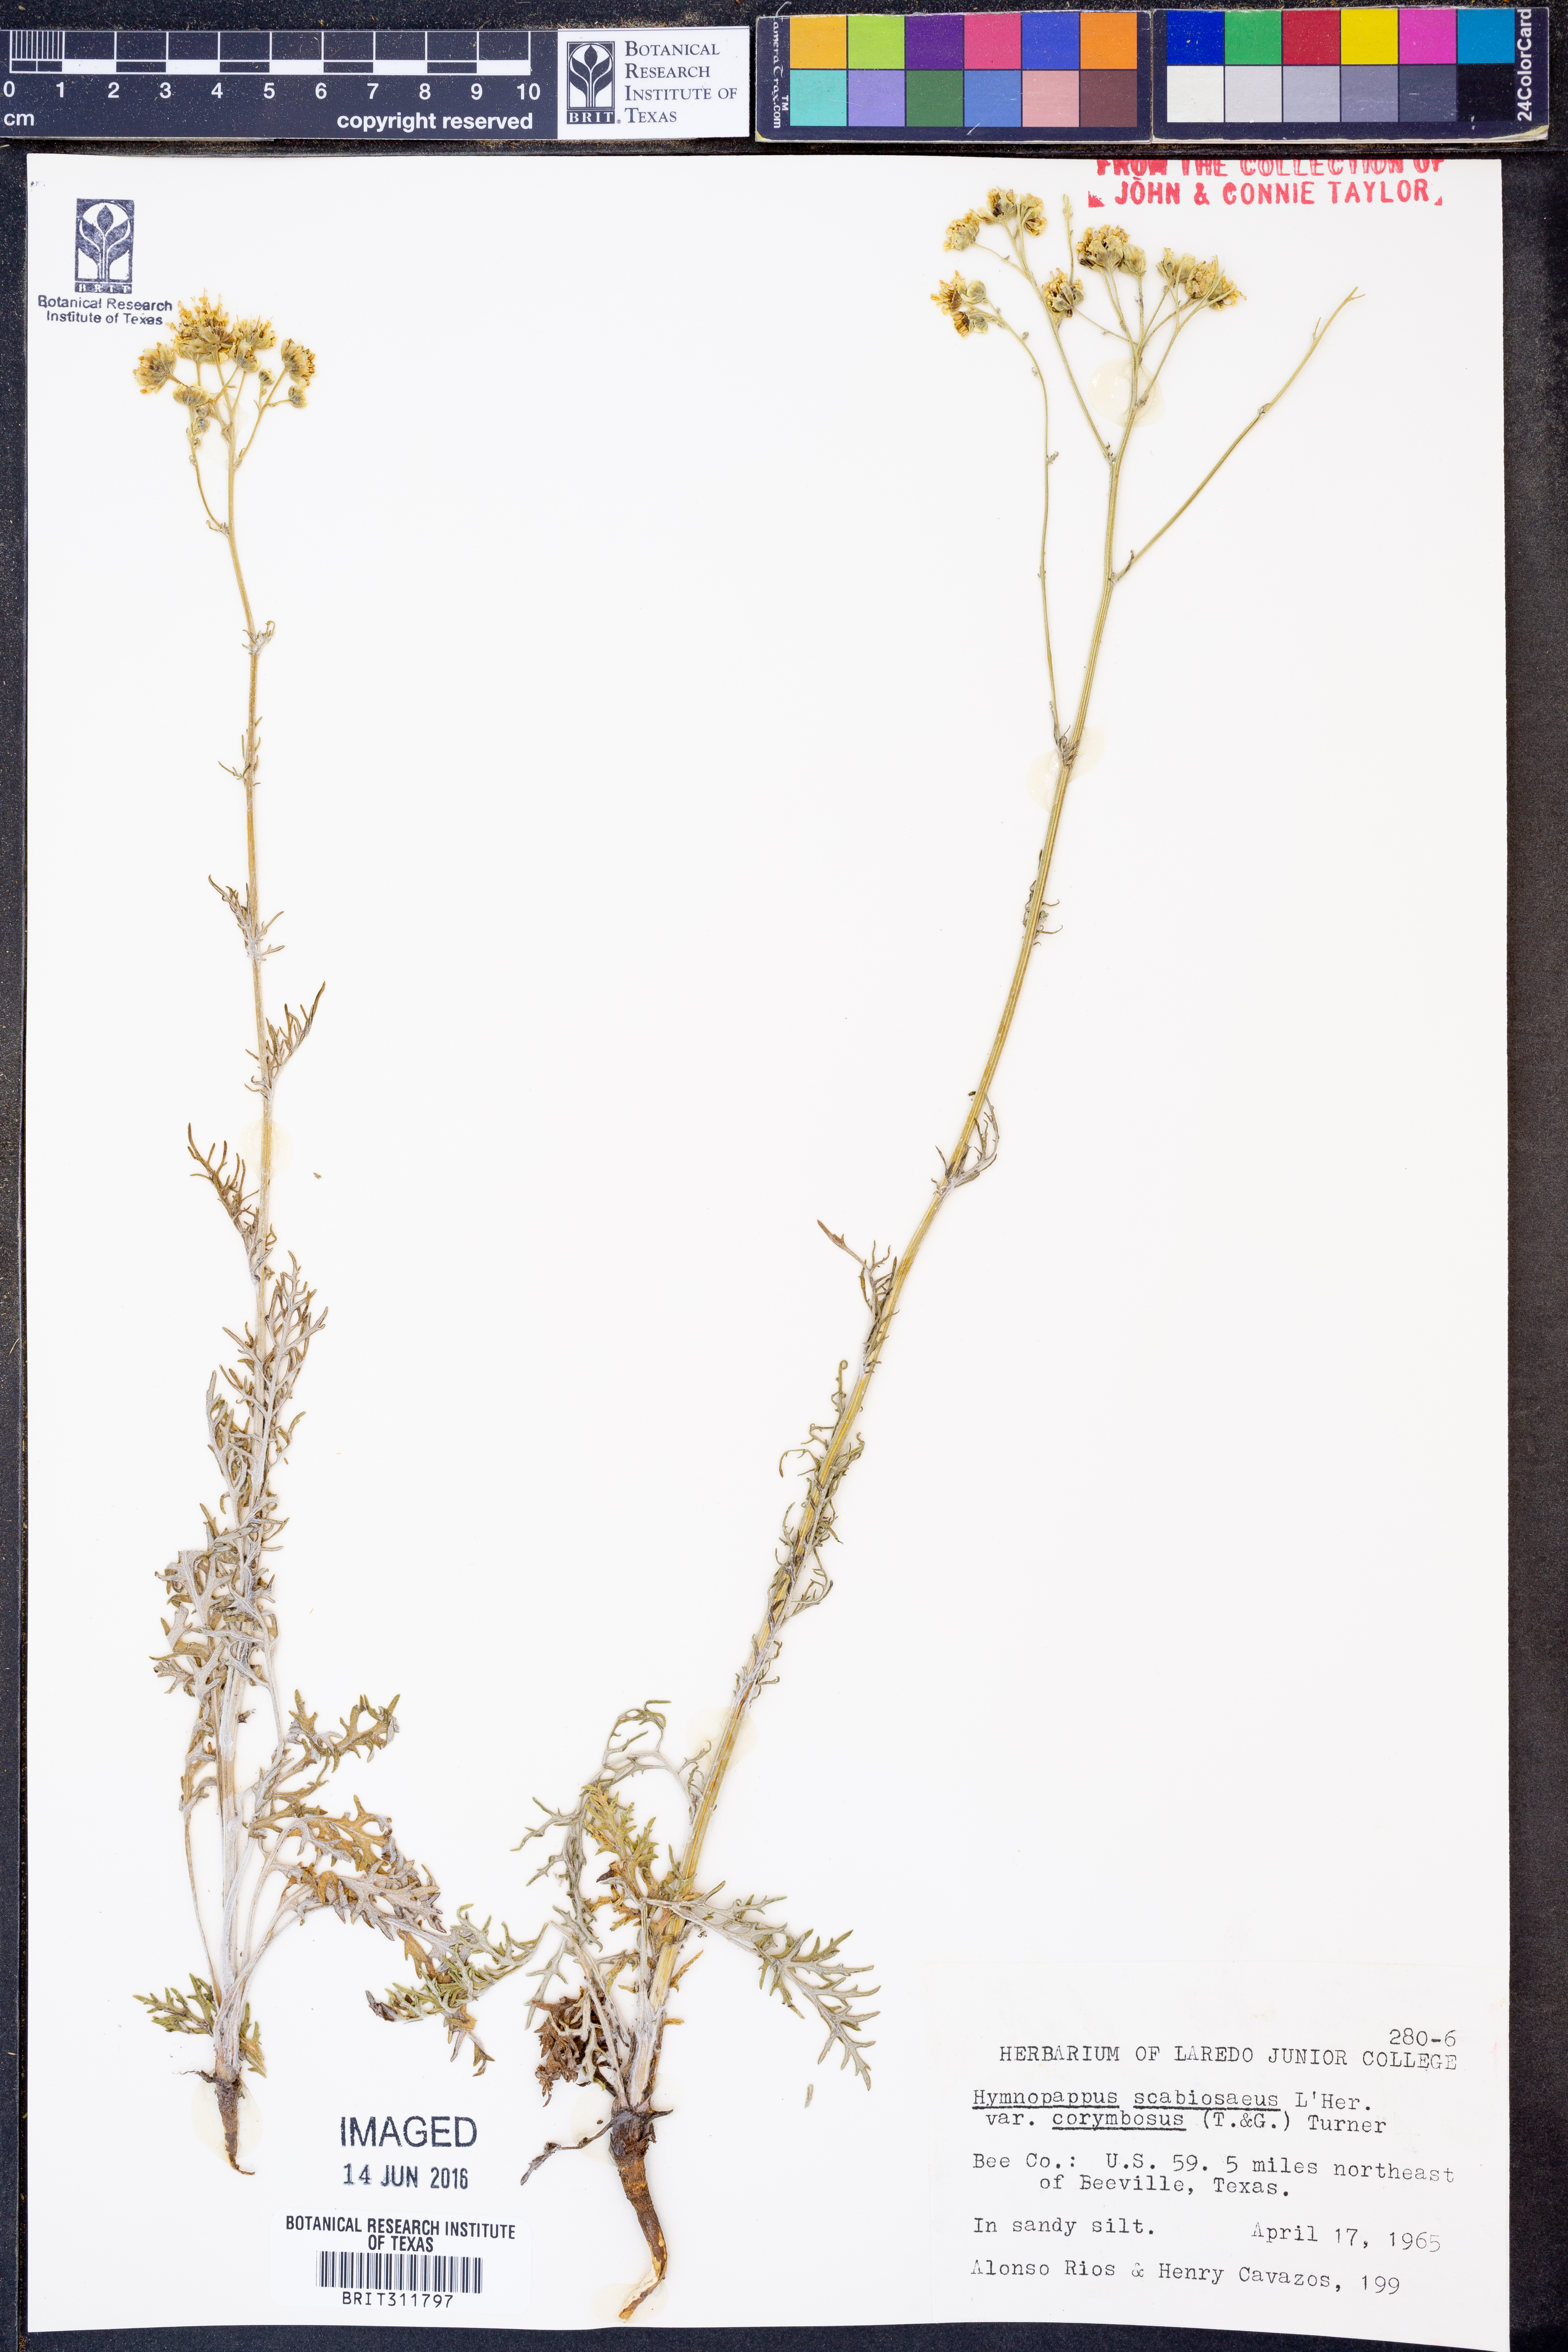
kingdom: Plantae
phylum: Tracheophyta
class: Magnoliopsida
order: Asterales
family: Asteraceae
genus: Hymenopappus
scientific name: Hymenopappus scabiosaeus
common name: Carolina woollywhite
